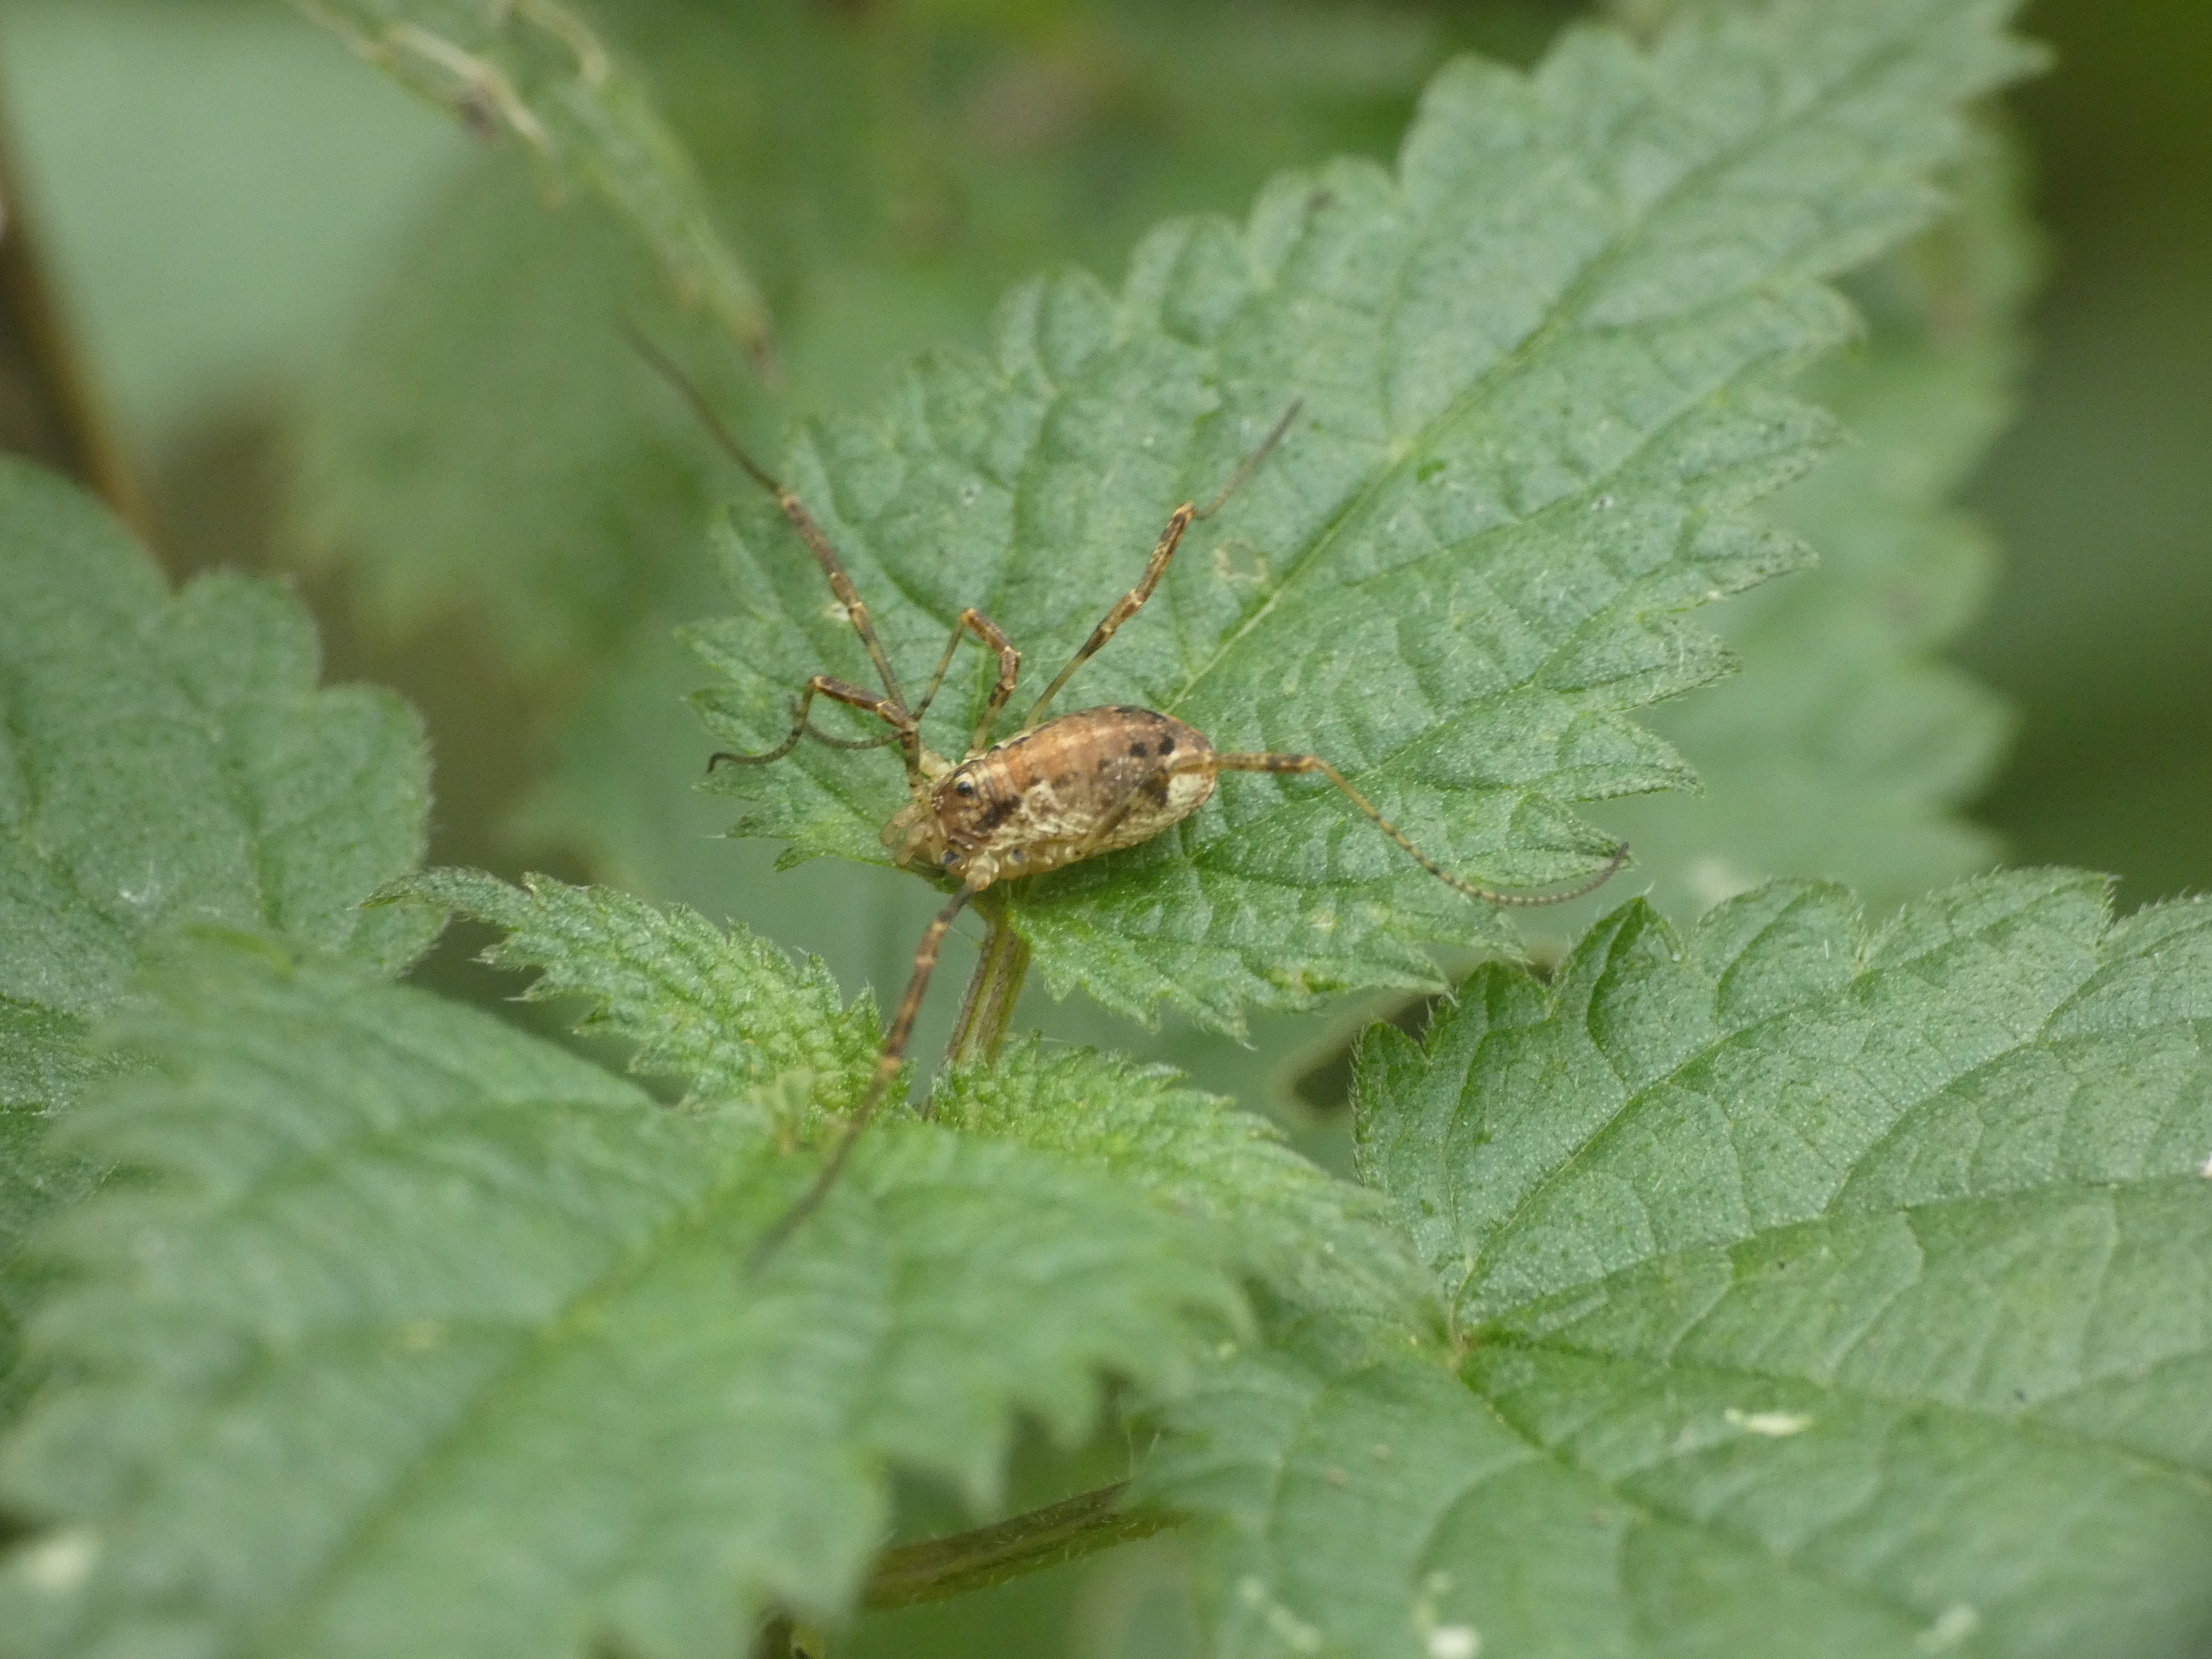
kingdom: Animalia
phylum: Arthropoda
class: Arachnida
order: Opiliones
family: Phalangiidae
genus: Paroligolophus
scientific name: Paroligolophus agrestis
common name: Hedemejer
